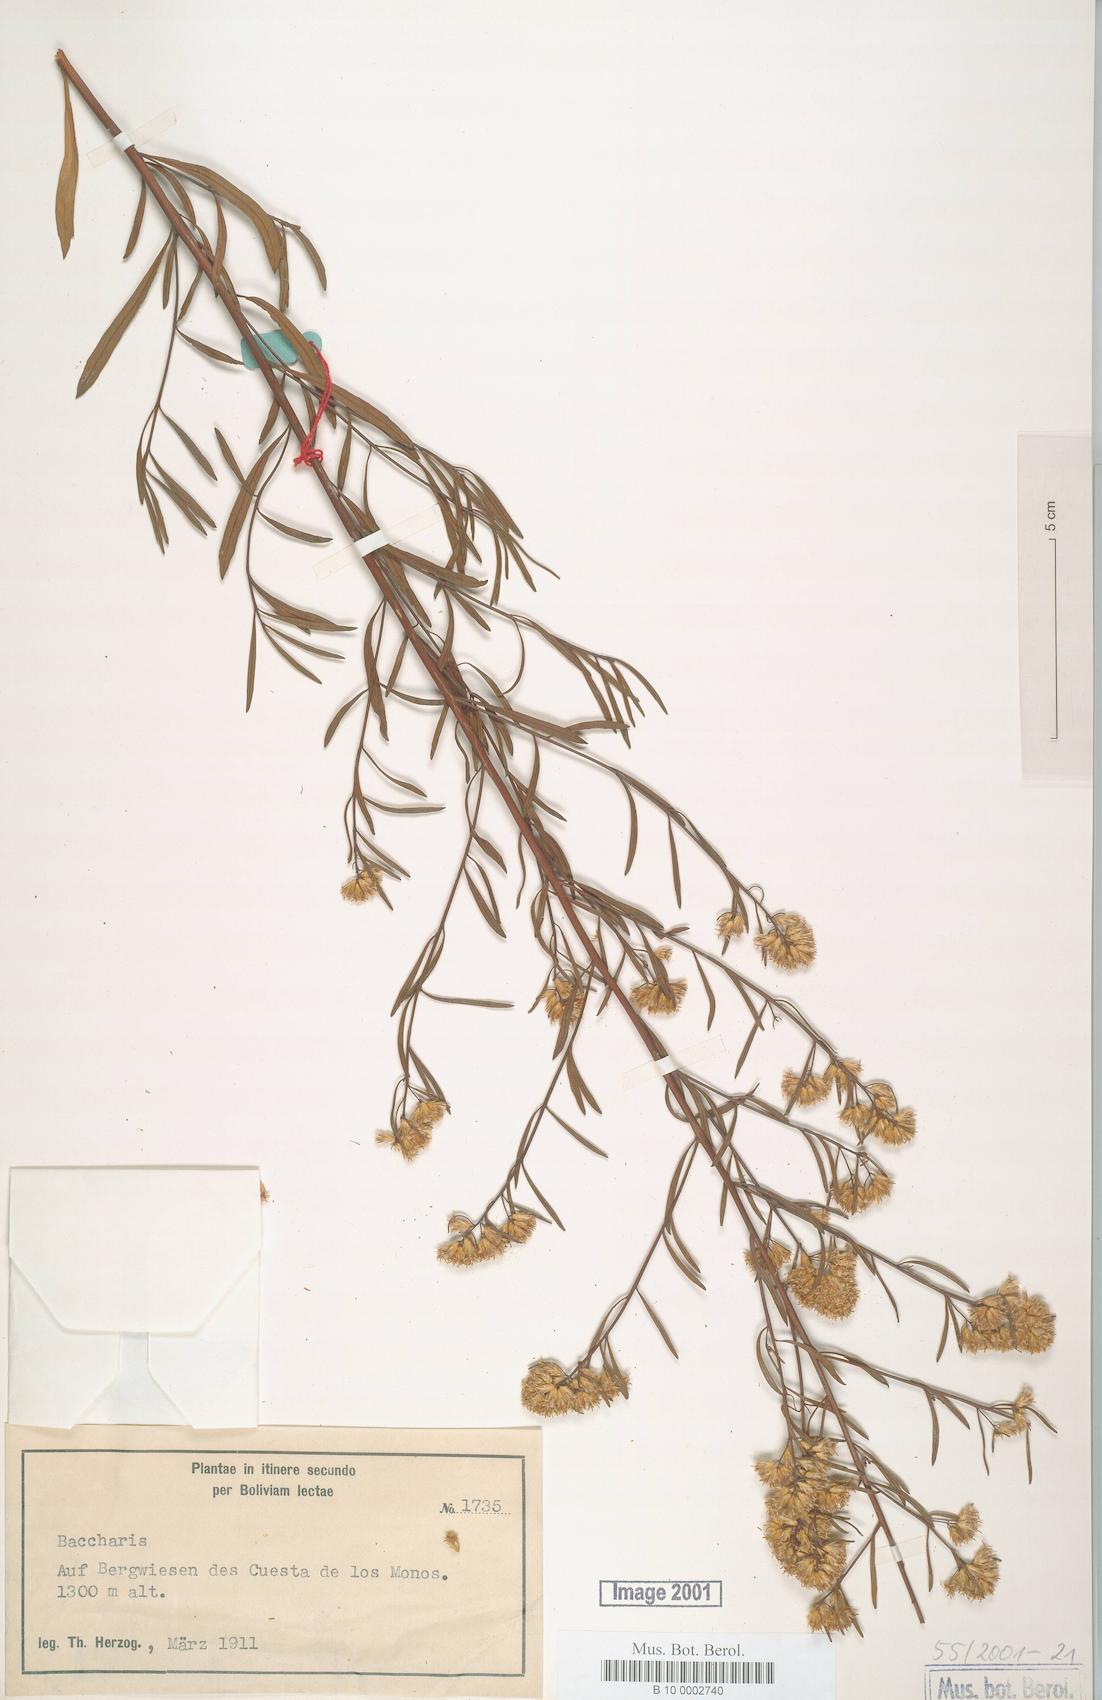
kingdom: Plantae
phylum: Tracheophyta
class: Magnoliopsida
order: Asterales
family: Asteraceae
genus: Baccharis
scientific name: Baccharis
